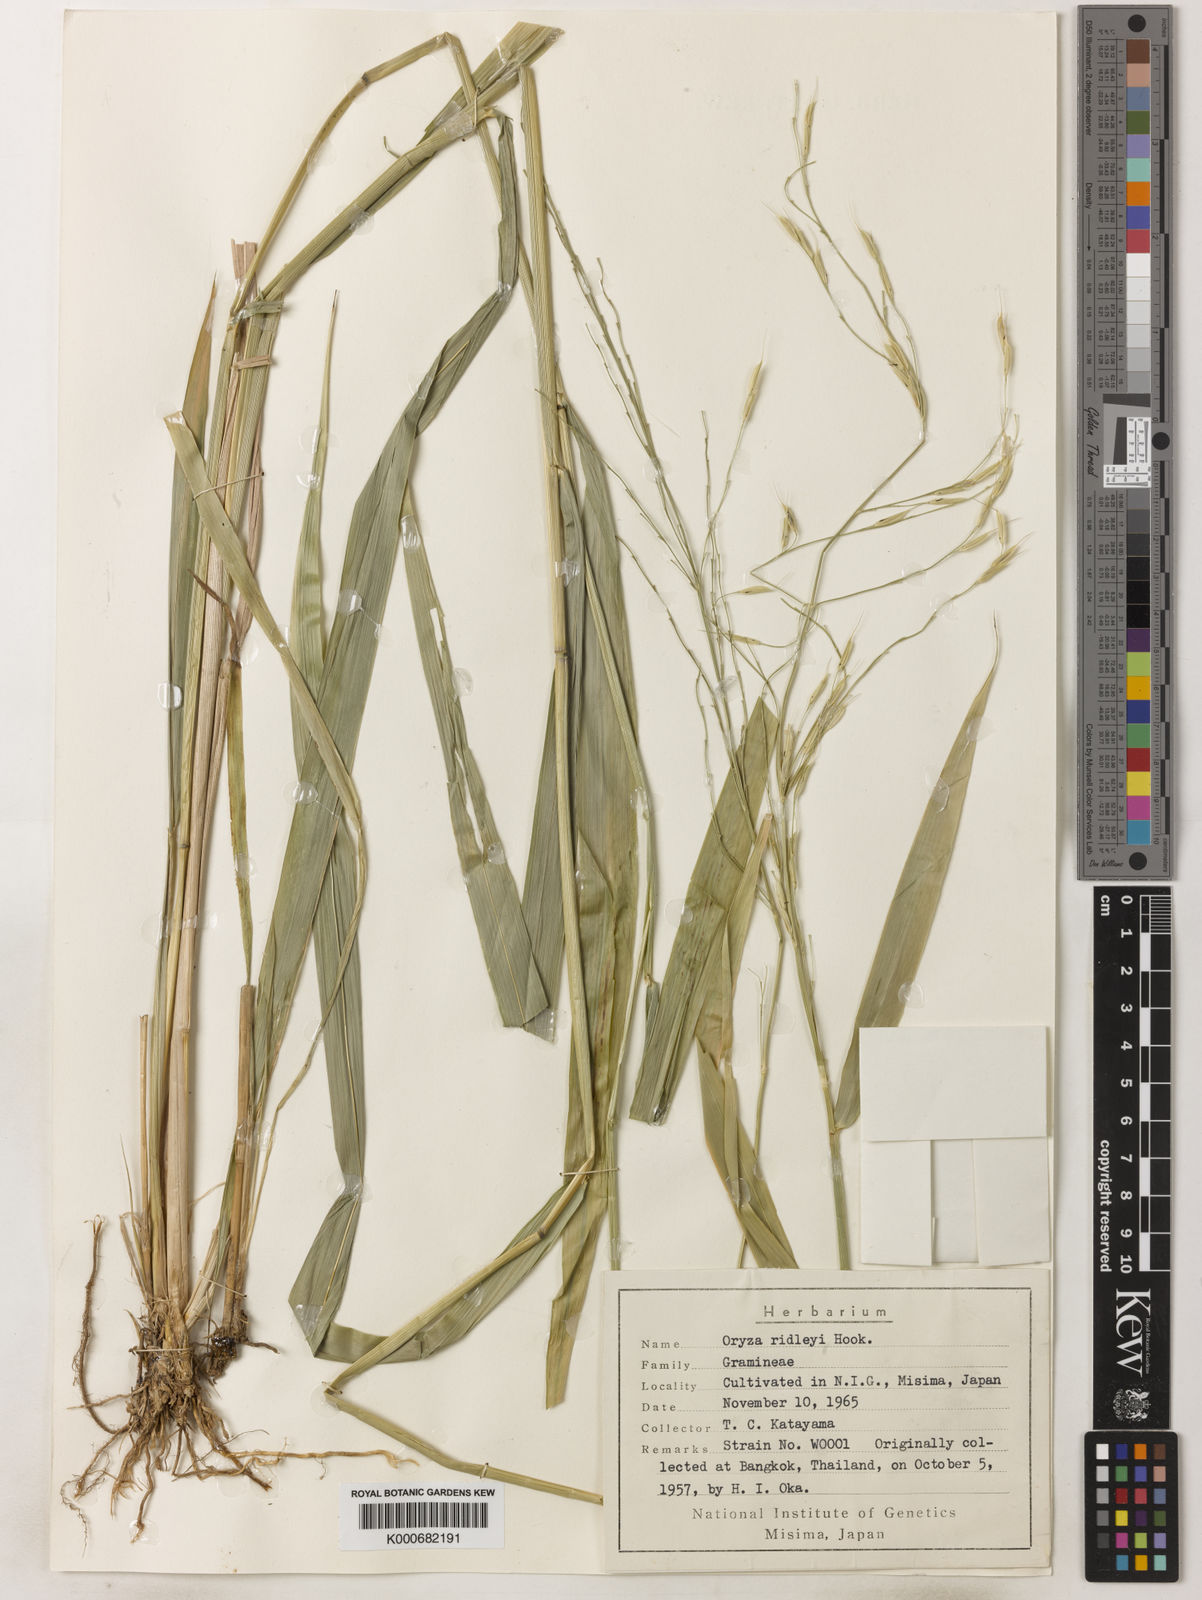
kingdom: Plantae
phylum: Tracheophyta
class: Liliopsida
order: Poales
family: Poaceae
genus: Oryza
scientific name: Oryza ridleyi
